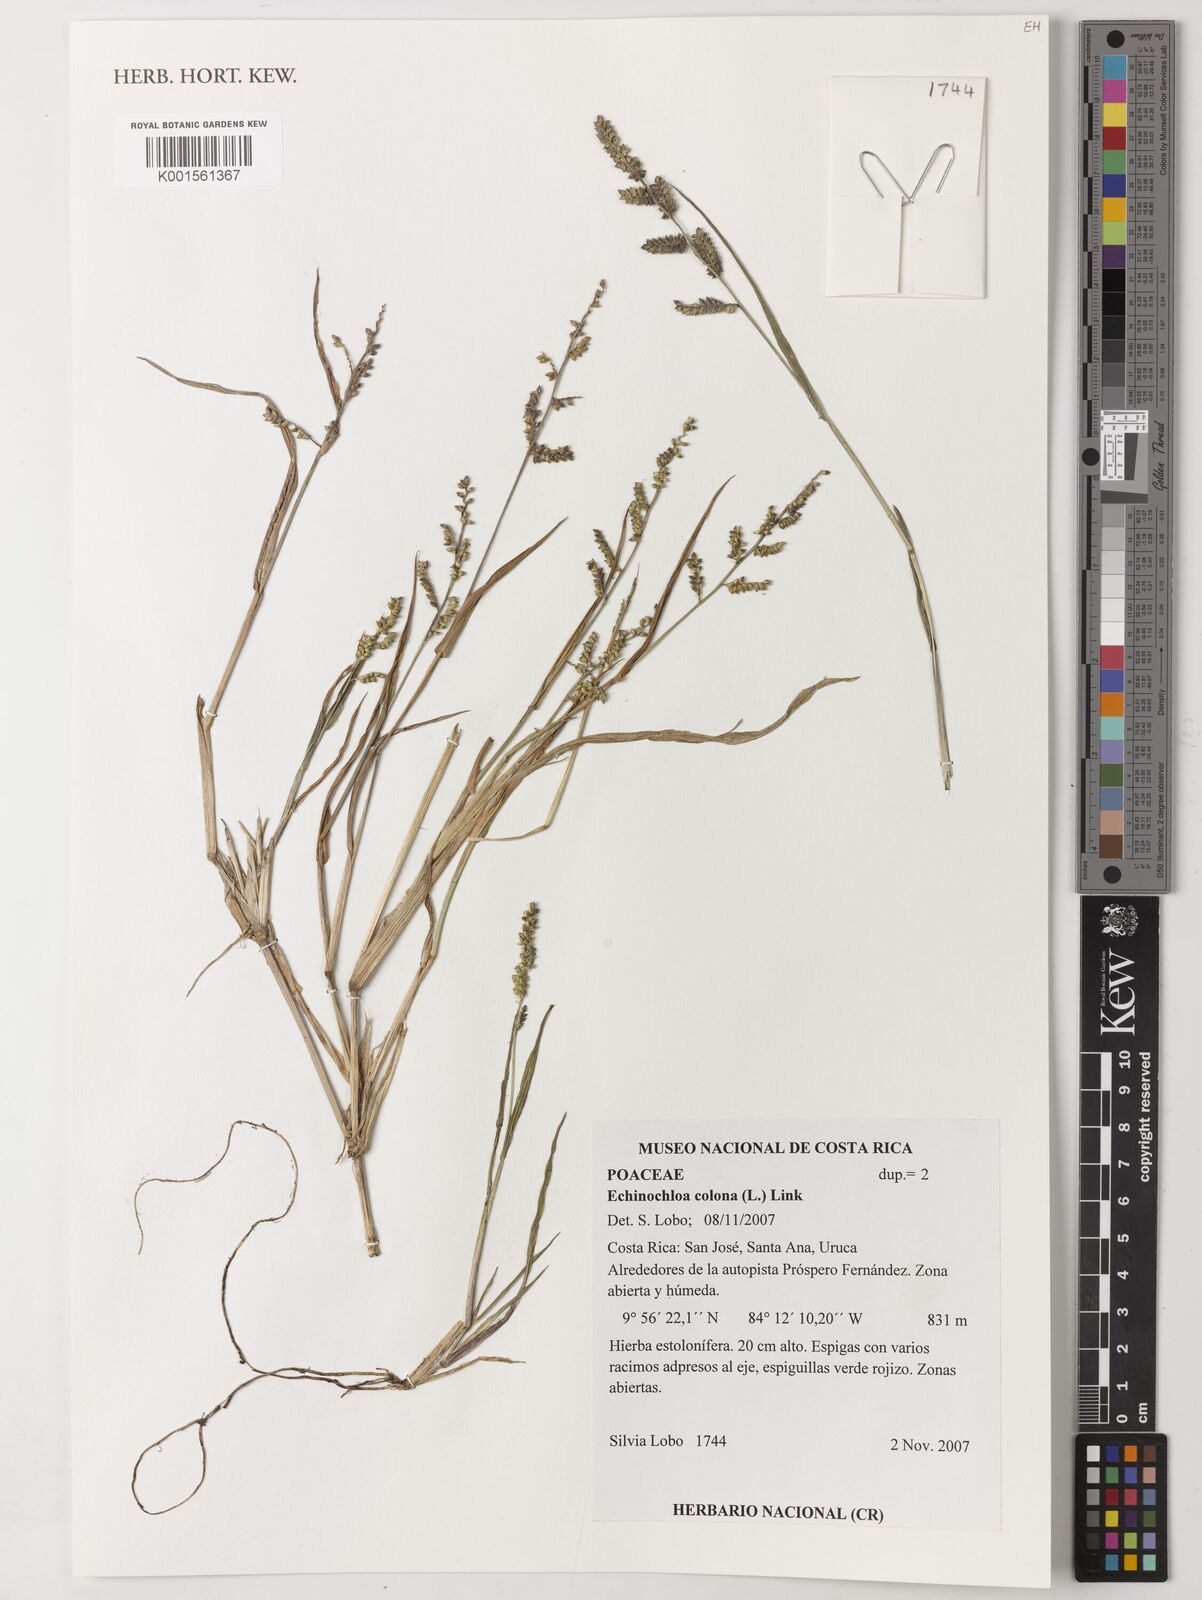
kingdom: Plantae
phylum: Tracheophyta
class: Liliopsida
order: Poales
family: Poaceae
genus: Echinochloa
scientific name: Echinochloa colonum
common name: Jungle rice
